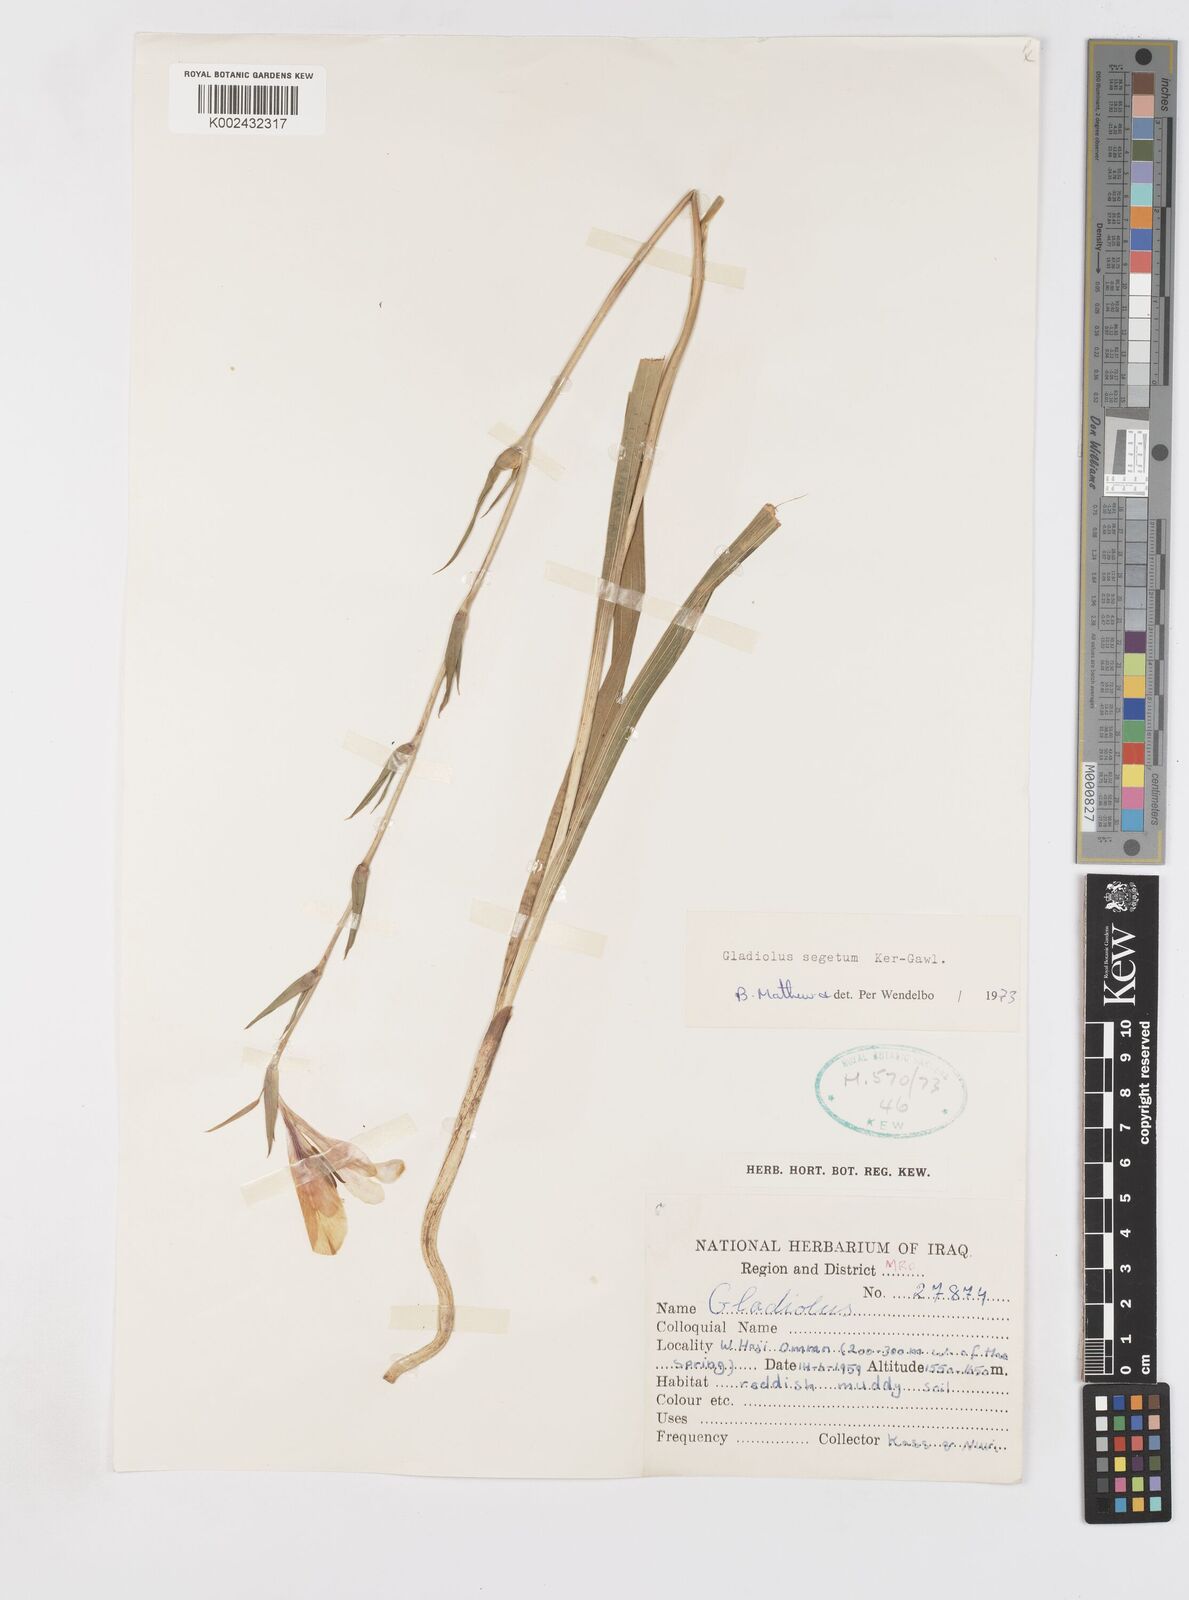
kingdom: Plantae
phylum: Tracheophyta
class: Liliopsida
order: Asparagales
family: Iridaceae
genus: Gladiolus
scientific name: Gladiolus italicus
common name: Field gladiolus
